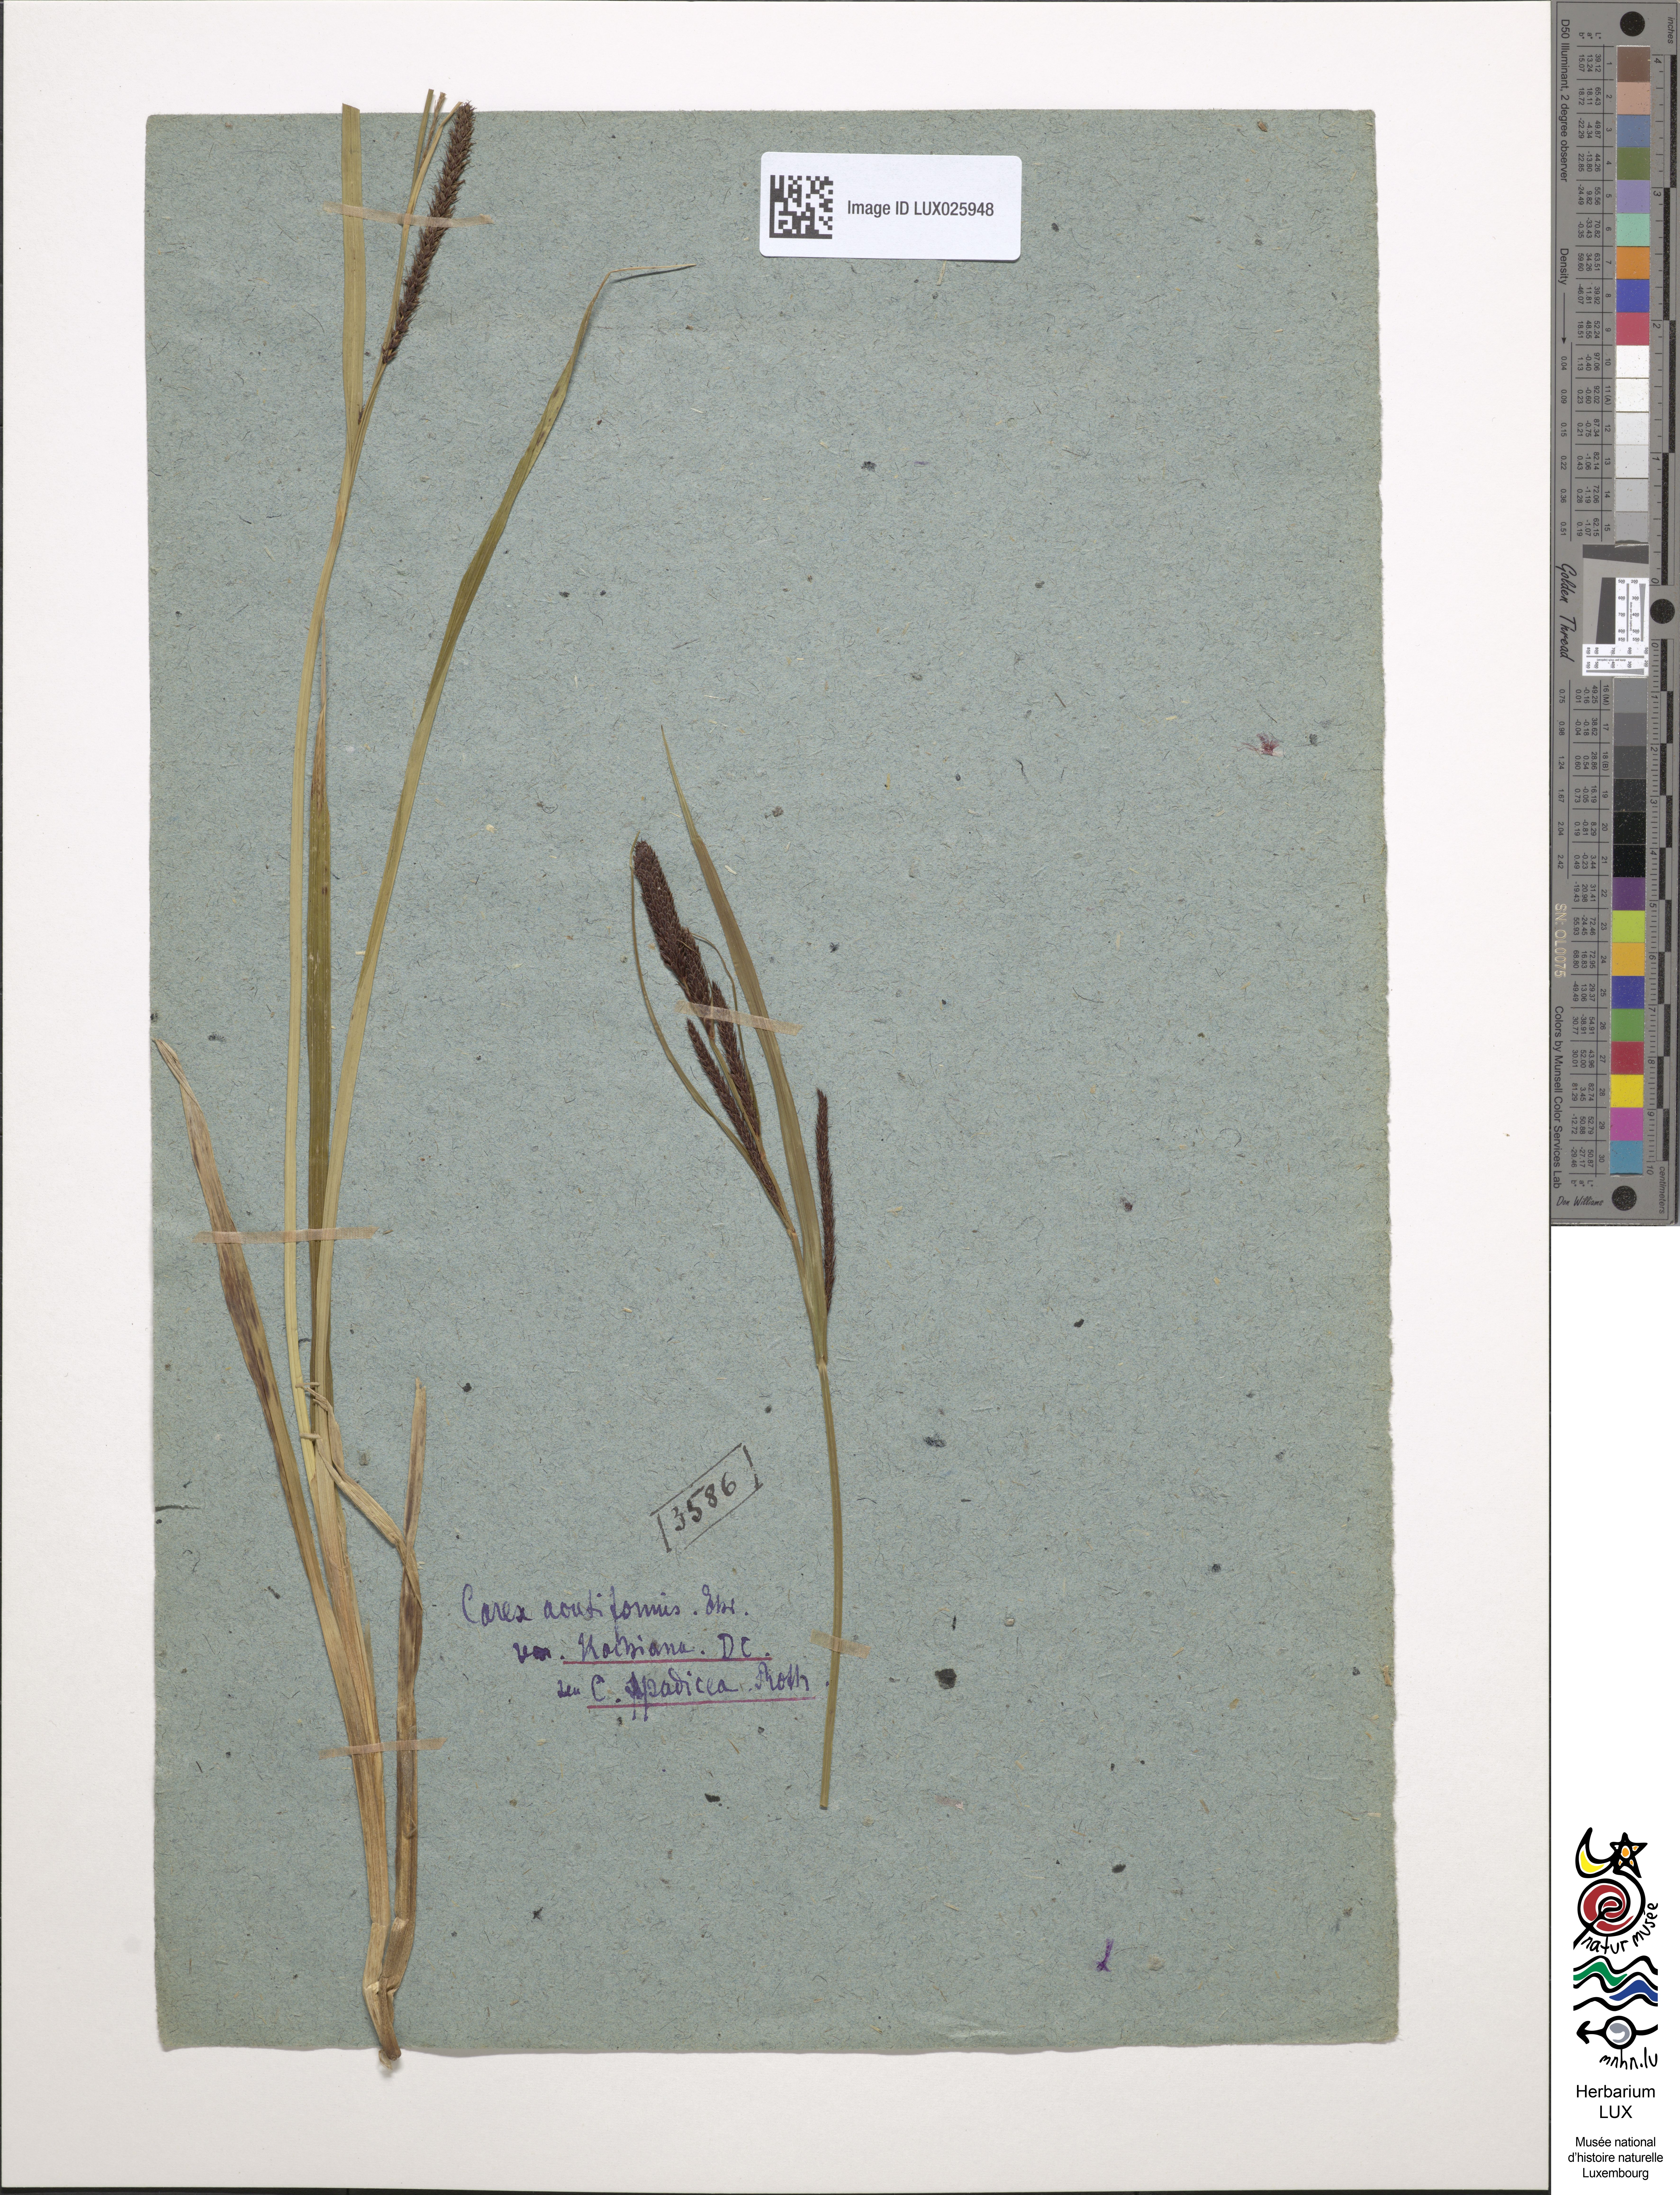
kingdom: Plantae
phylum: Tracheophyta
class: Liliopsida
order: Poales
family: Cyperaceae
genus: Carex
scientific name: Carex acutiformis
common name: Lesser pond-sedge
